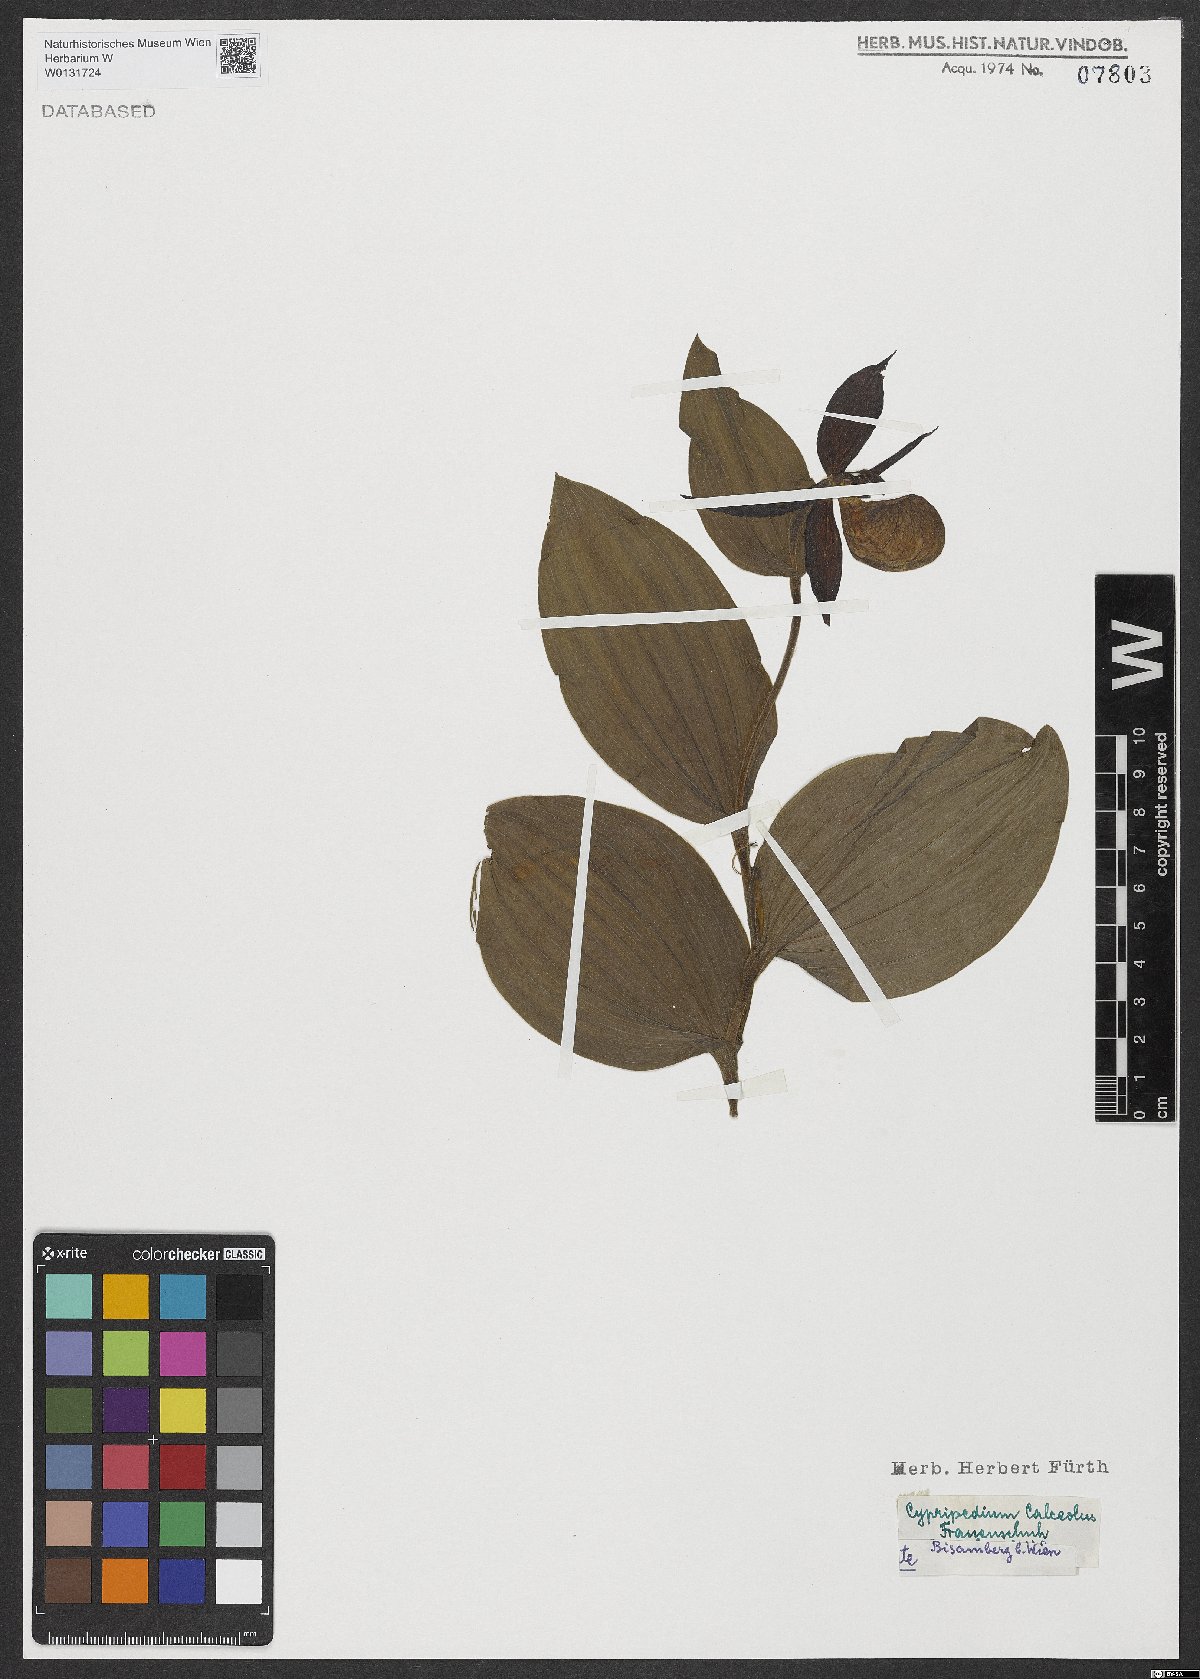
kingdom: Plantae
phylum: Tracheophyta
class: Liliopsida
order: Asparagales
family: Orchidaceae
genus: Cypripedium
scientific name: Cypripedium calceolus
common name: Lady's-slipper
